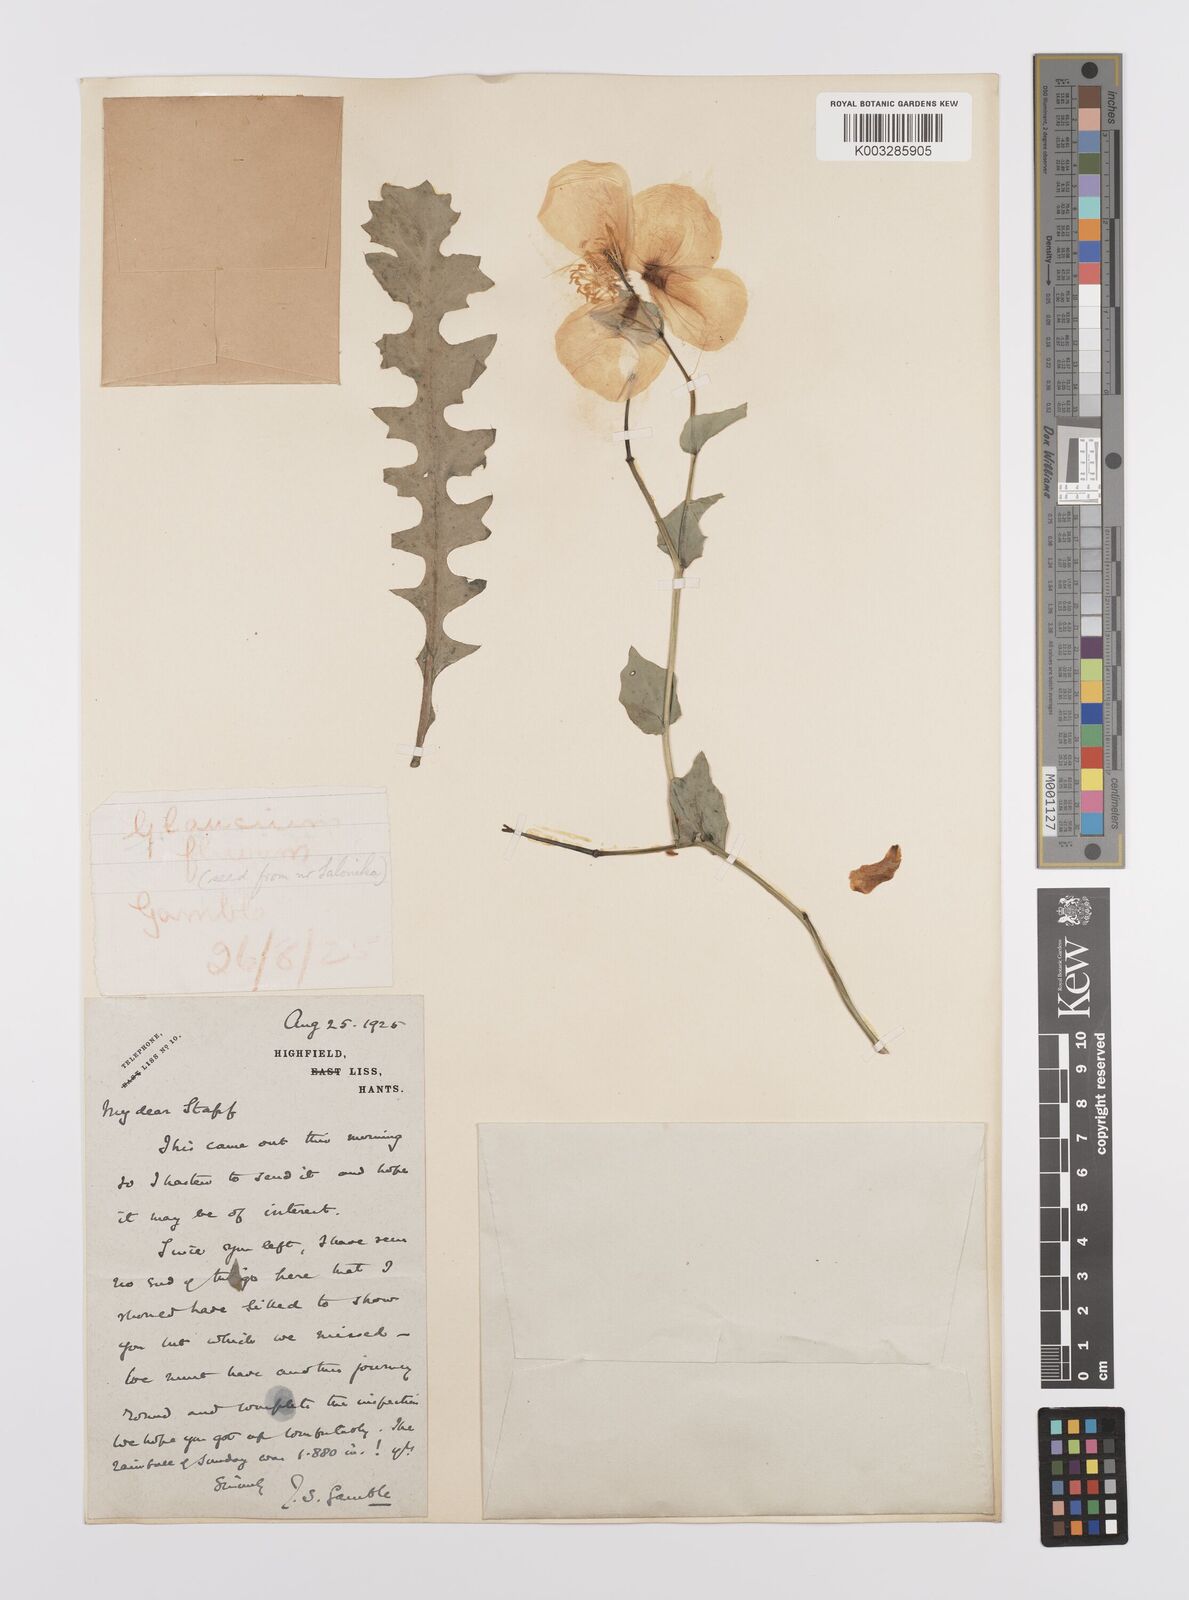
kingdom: Plantae
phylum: Tracheophyta
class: Magnoliopsida
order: Ranunculales
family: Papaveraceae
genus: Glaucium
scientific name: Glaucium flavum
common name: Yellow horned-poppy
